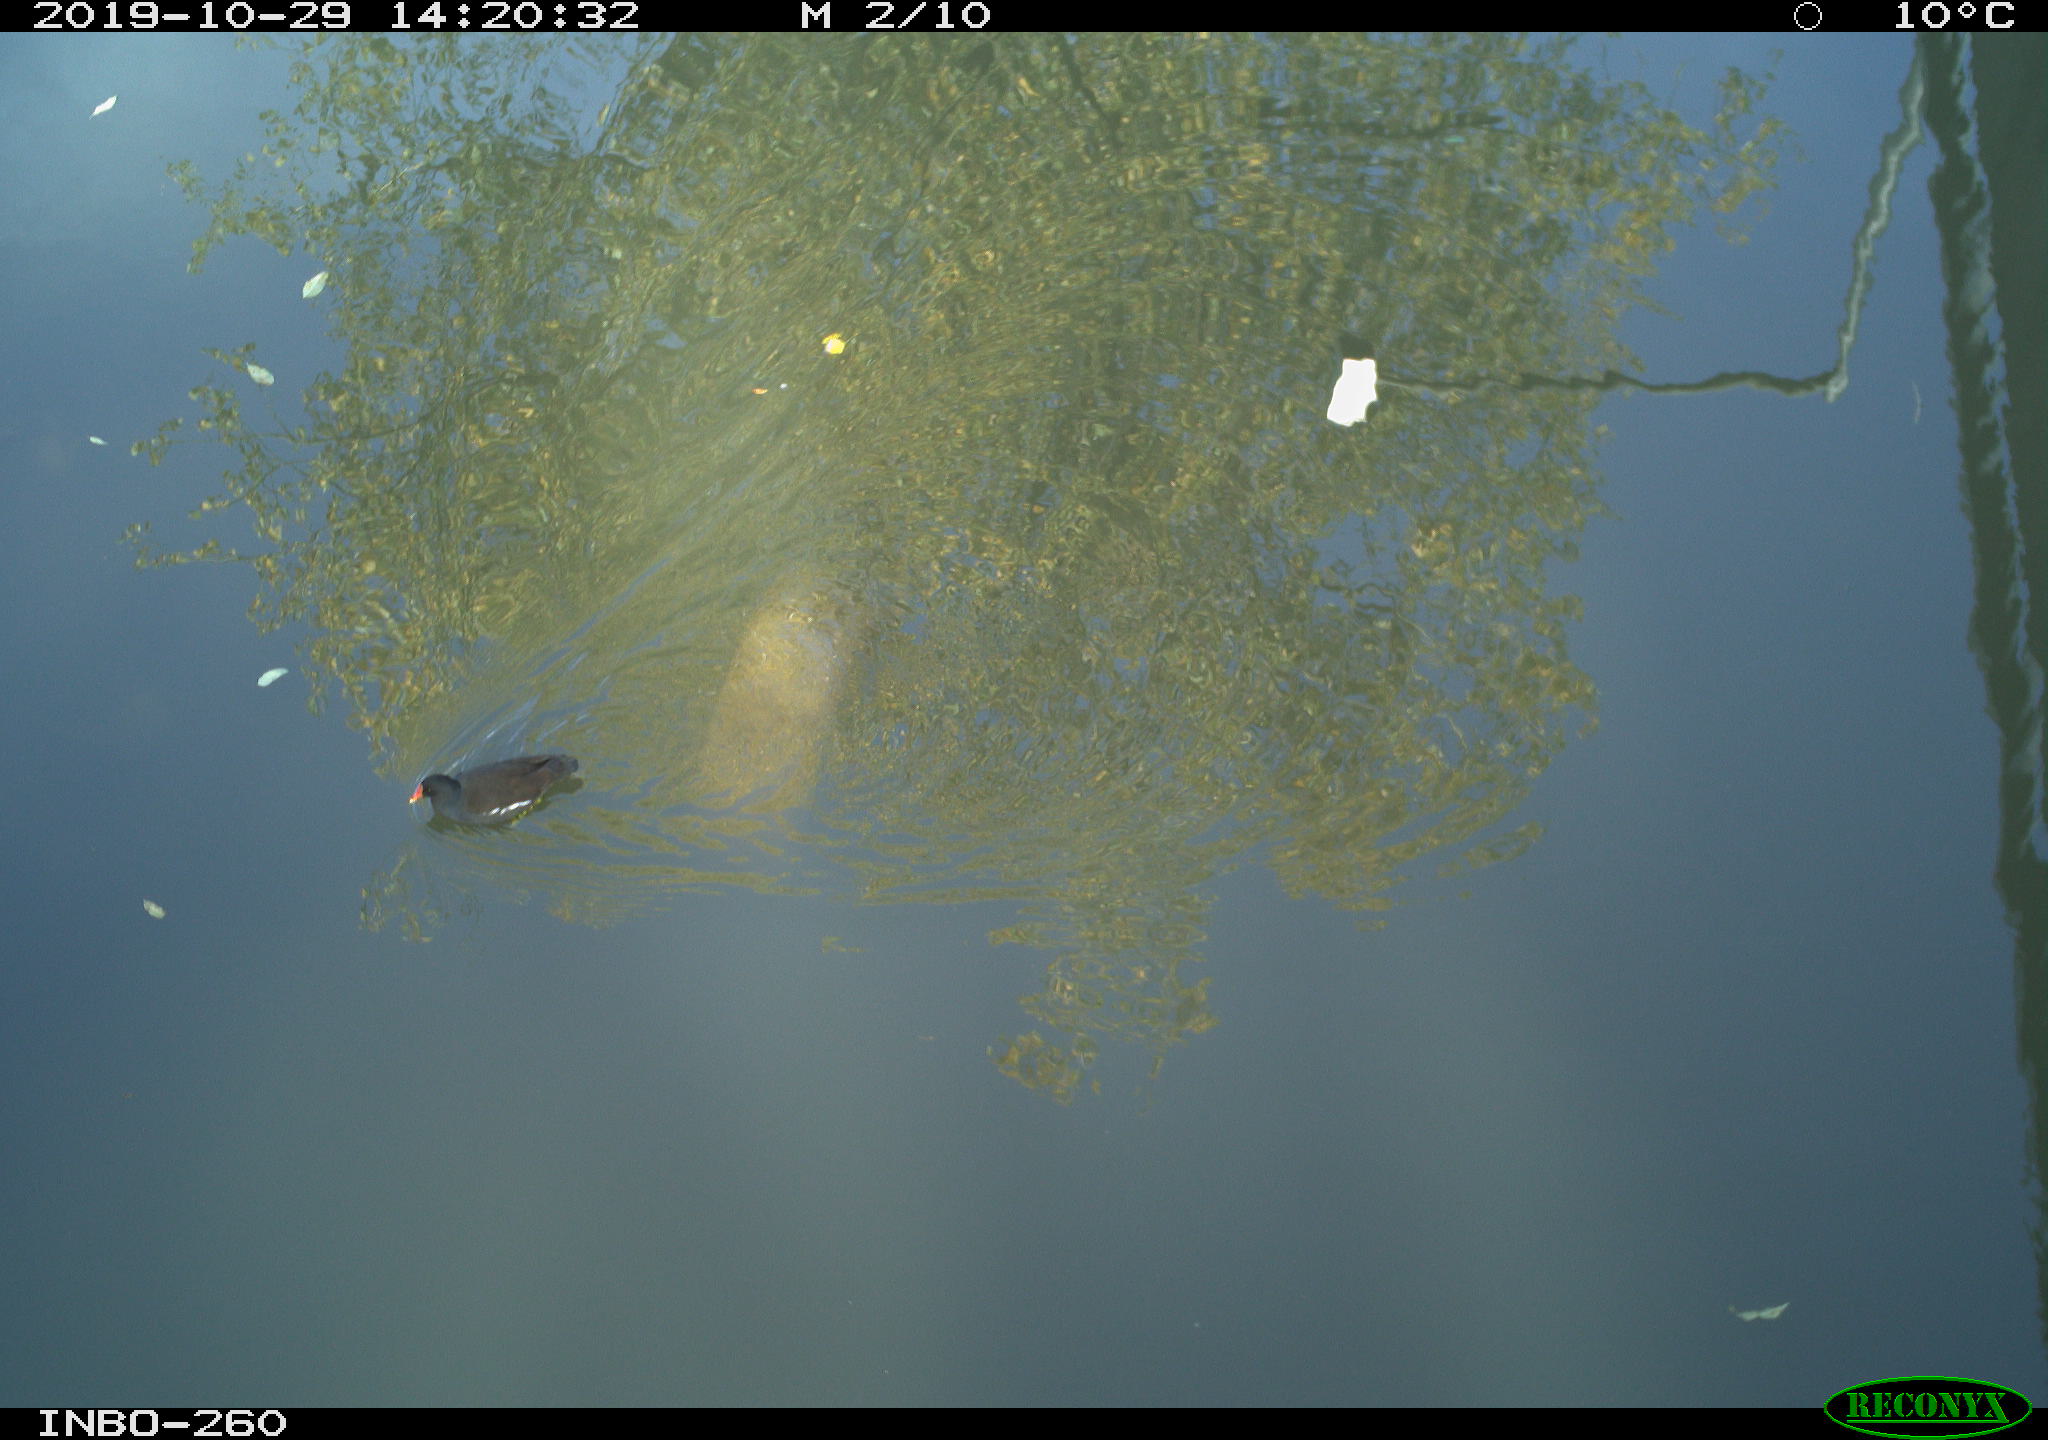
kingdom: Animalia
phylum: Chordata
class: Aves
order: Gruiformes
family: Rallidae
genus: Gallinula
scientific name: Gallinula chloropus
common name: Common moorhen
